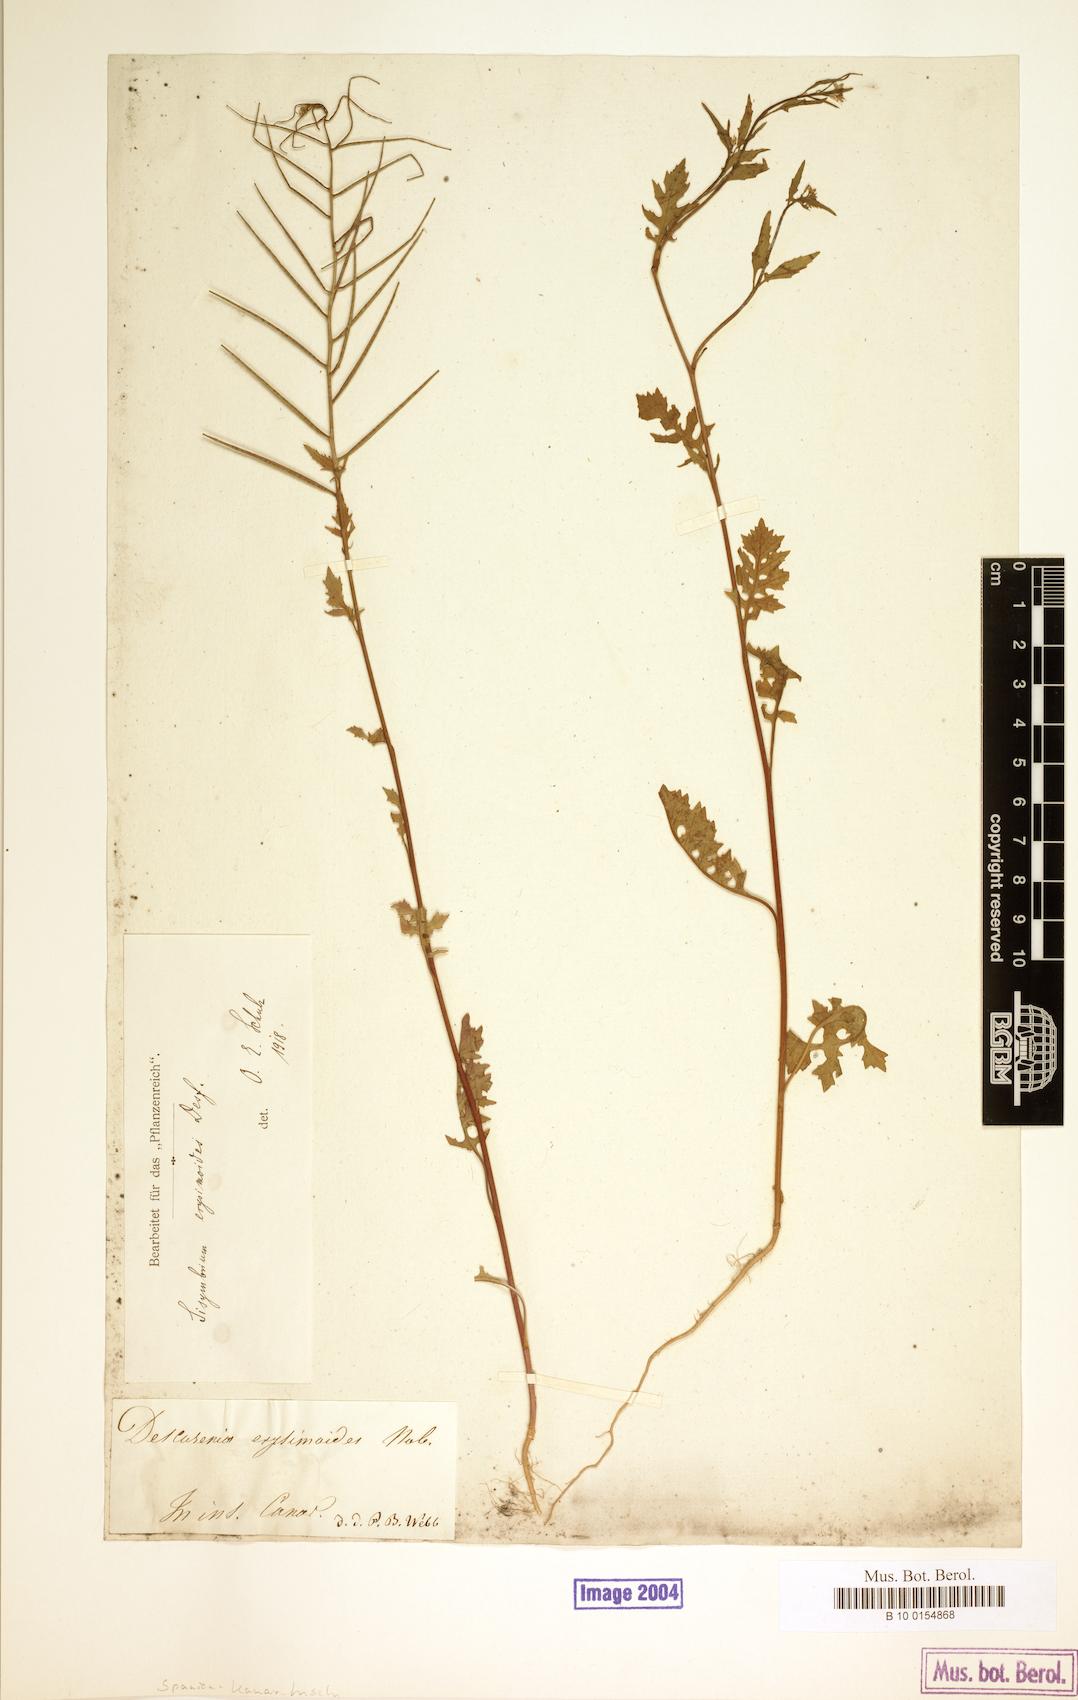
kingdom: Plantae
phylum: Tracheophyta
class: Magnoliopsida
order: Brassicales
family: Brassicaceae
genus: Sisymbrium
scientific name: Sisymbrium erysimoides
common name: French rocket
